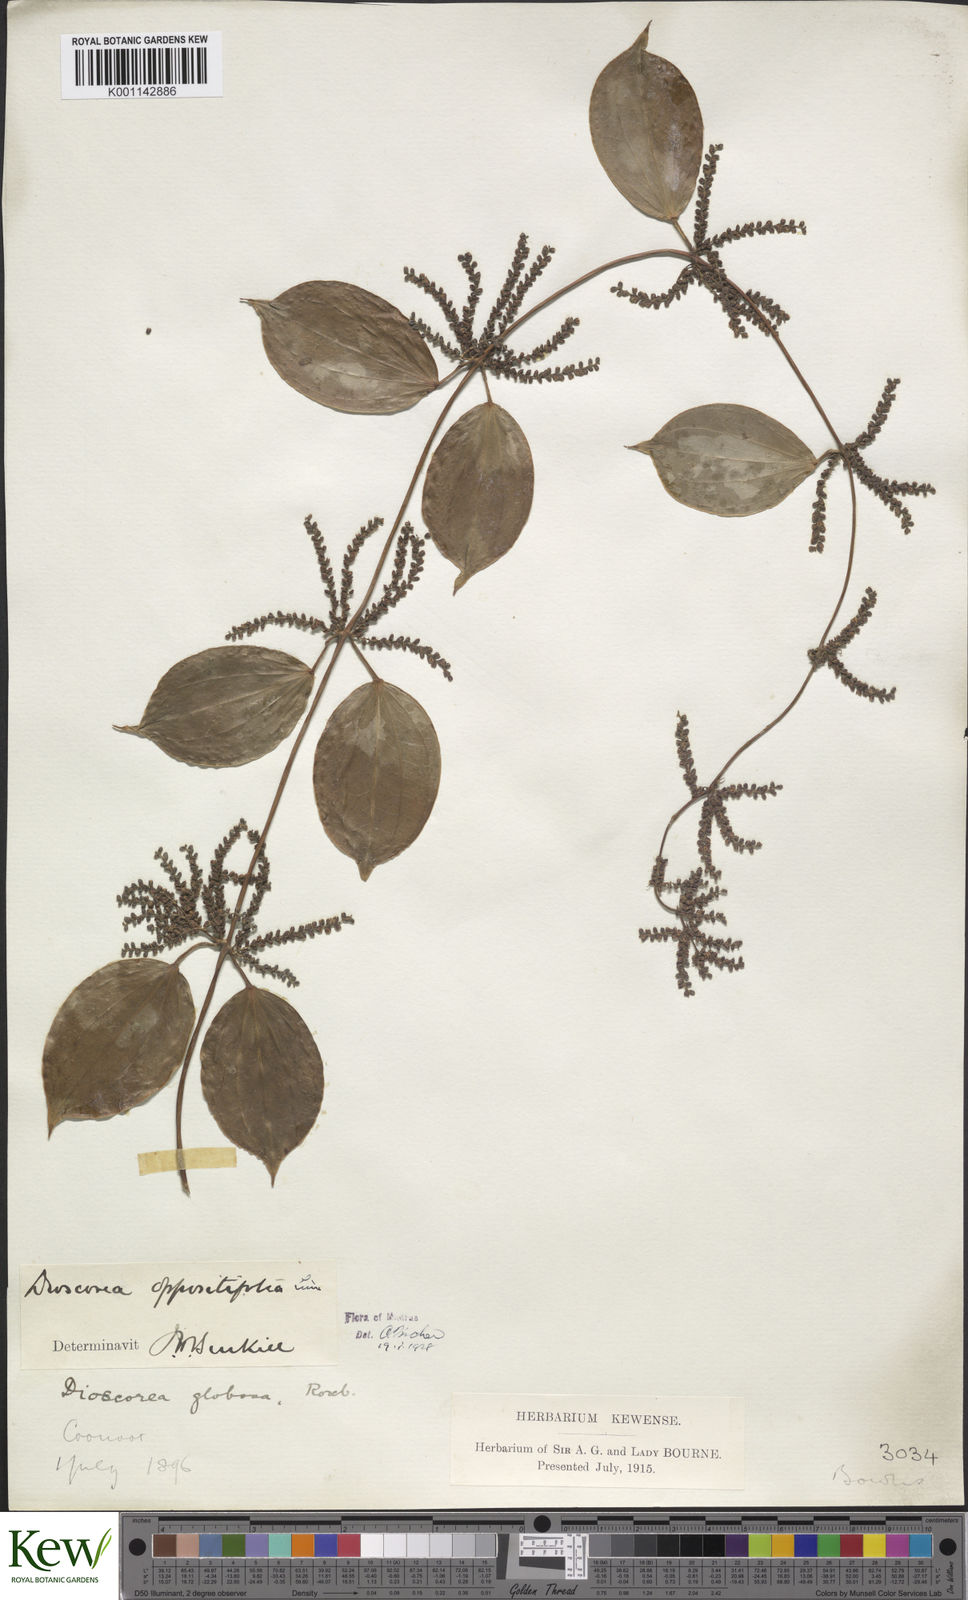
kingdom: Plantae
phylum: Tracheophyta
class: Liliopsida
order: Dioscoreales
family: Dioscoreaceae
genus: Dioscorea
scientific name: Dioscorea oppositifolia
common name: Chinese yam
